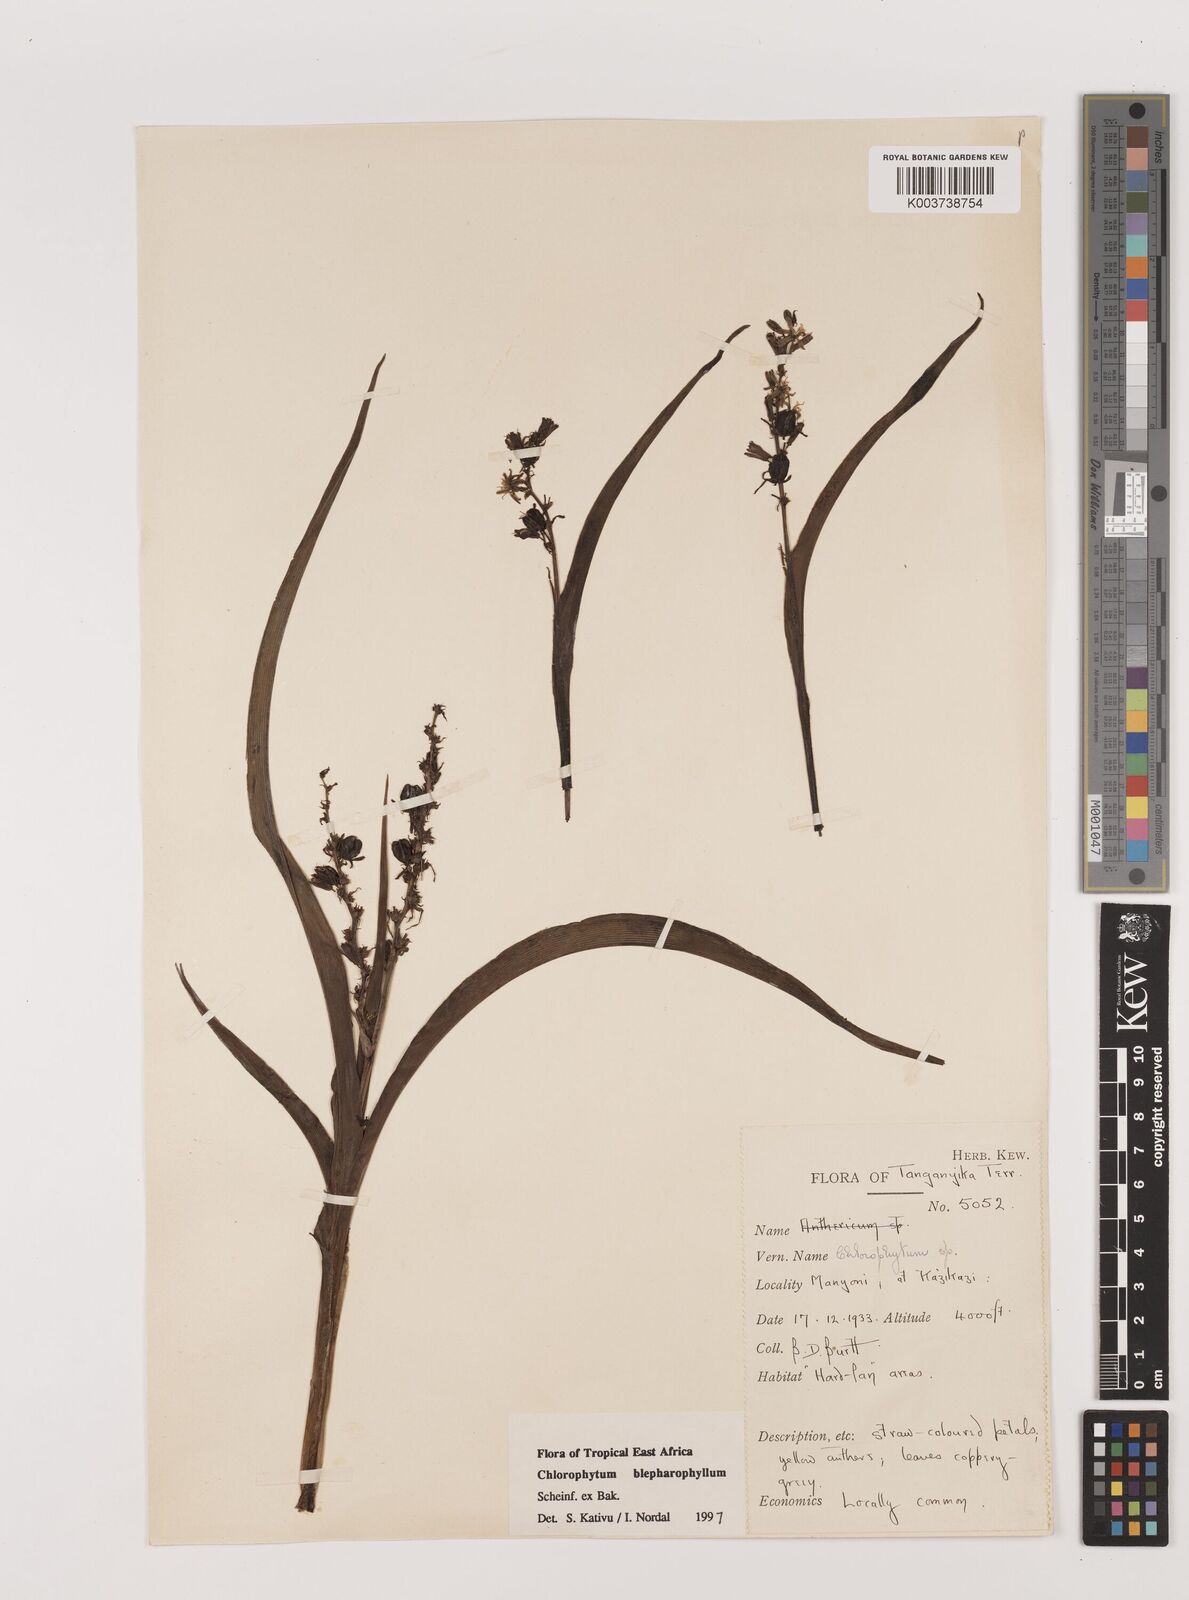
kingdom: Plantae
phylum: Tracheophyta
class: Liliopsida
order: Asparagales
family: Asparagaceae
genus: Chlorophytum
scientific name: Chlorophytum blepharophyllum
